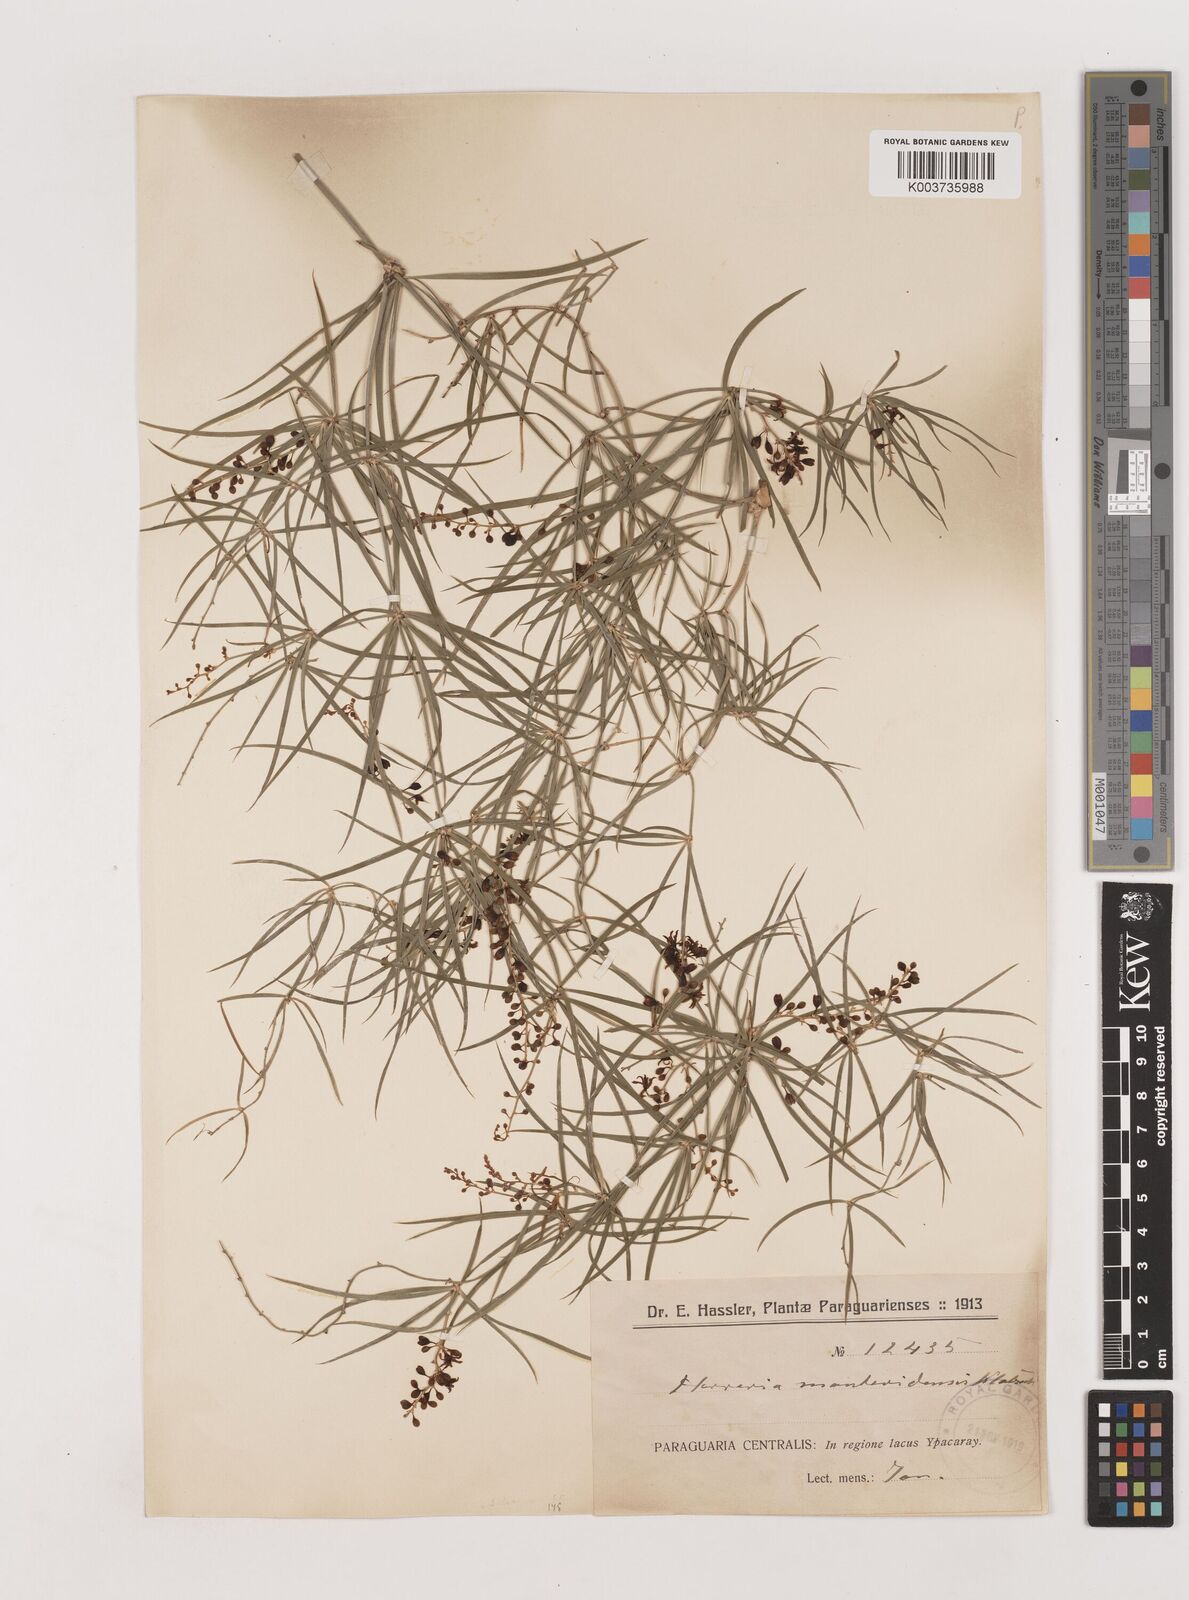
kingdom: Plantae
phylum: Tracheophyta
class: Liliopsida
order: Asparagales
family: Asparagaceae
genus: Herreria
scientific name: Herreria bonplandii
